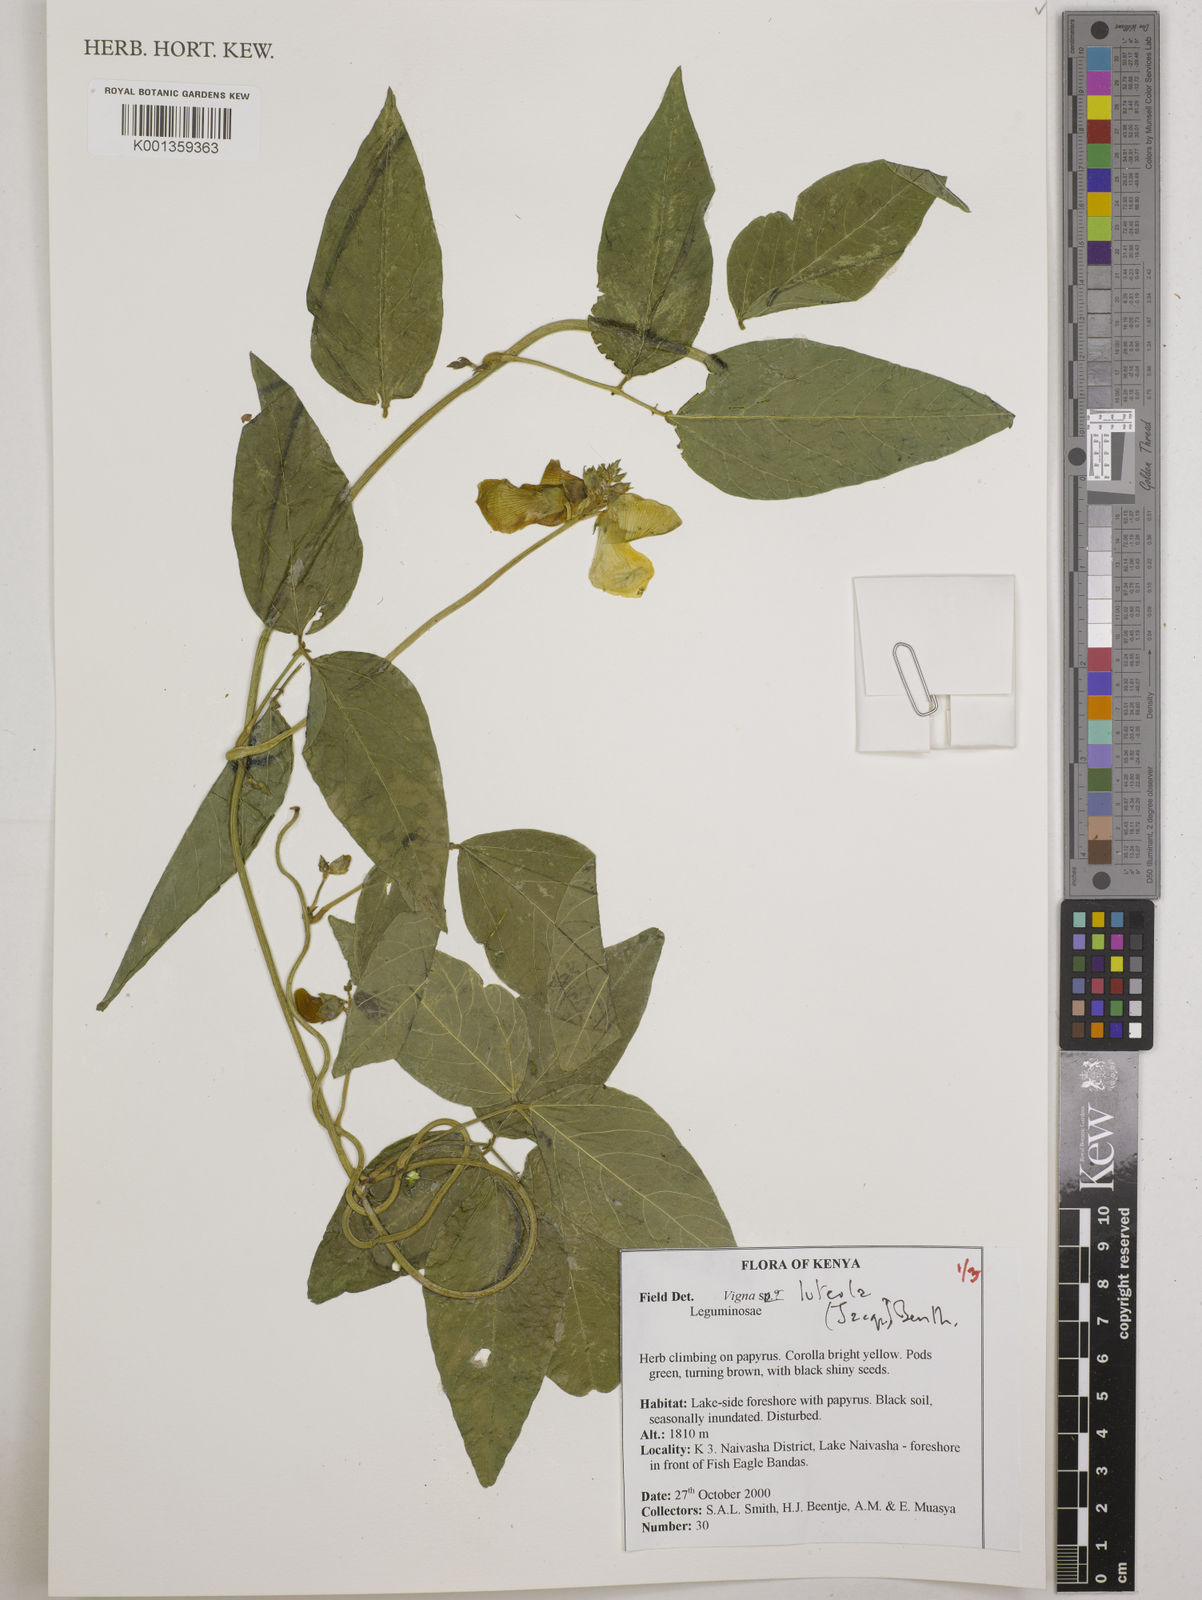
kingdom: Plantae
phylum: Tracheophyta
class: Magnoliopsida
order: Fabales
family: Fabaceae
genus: Vigna
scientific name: Vigna luteola
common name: Hairypod cowpea
